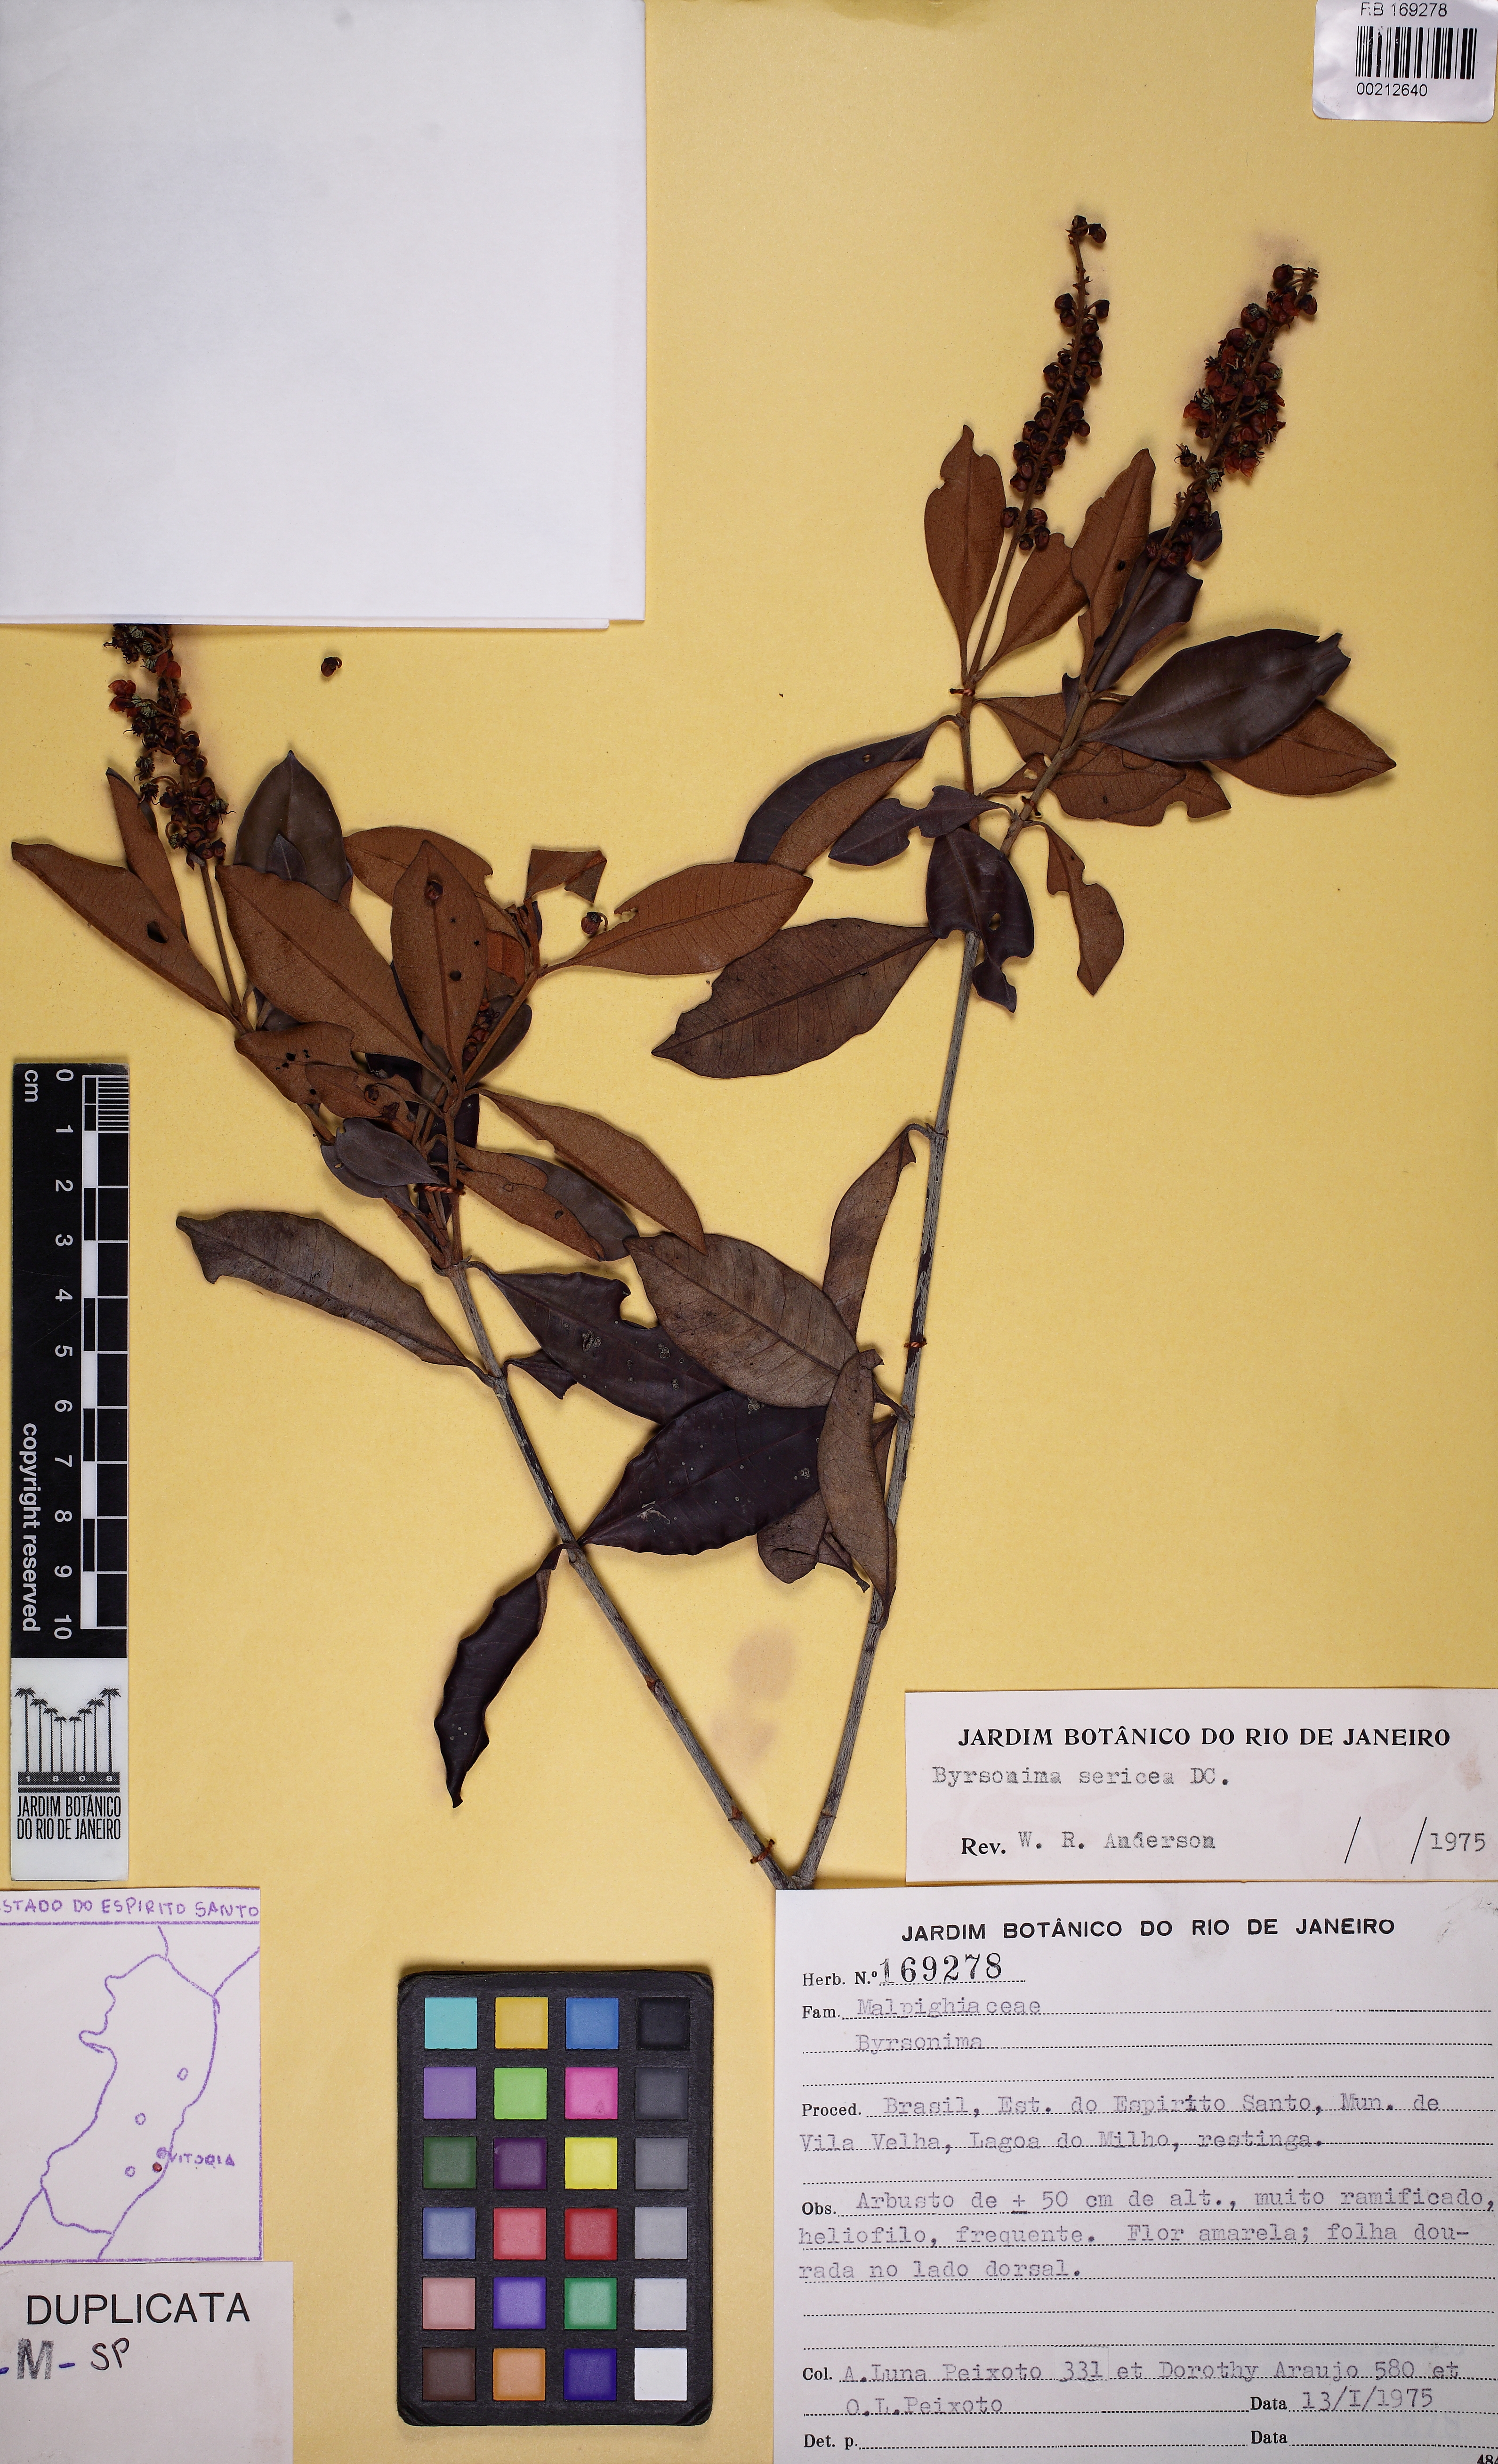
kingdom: Plantae
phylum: Tracheophyta
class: Magnoliopsida
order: Malpighiales
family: Malpighiaceae
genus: Byrsonima
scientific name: Byrsonima sericea
